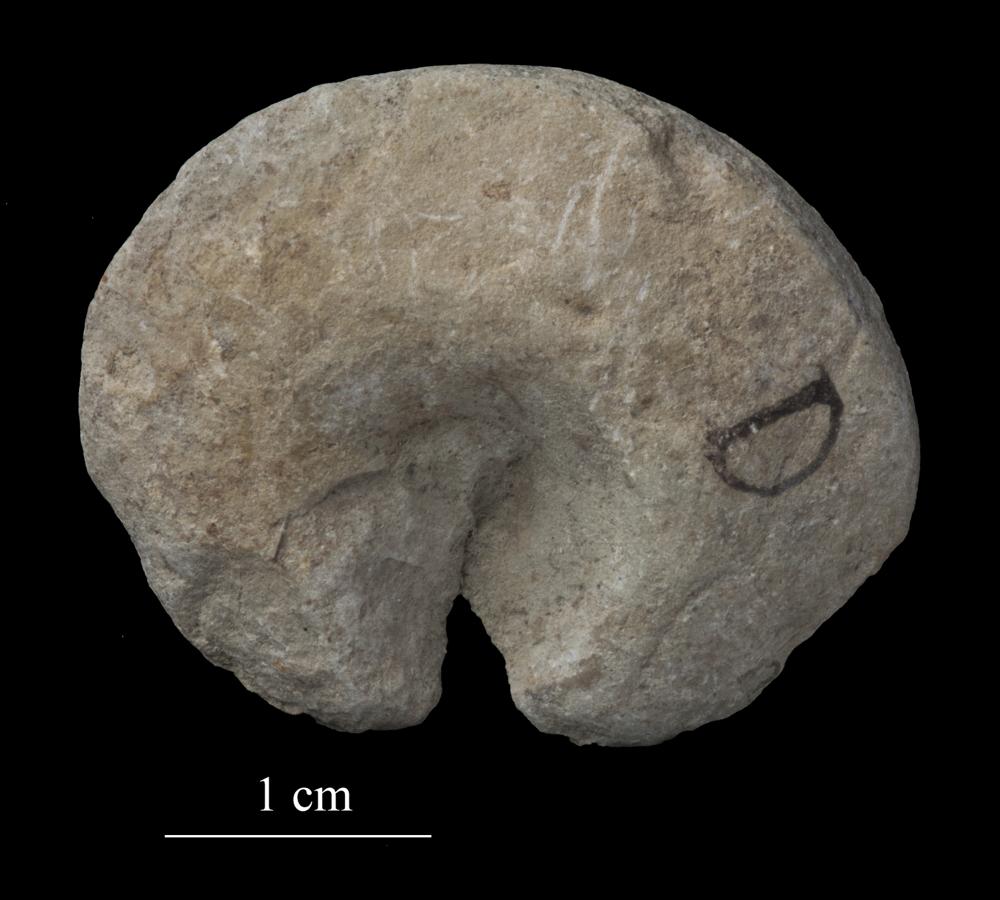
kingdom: Animalia
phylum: Mollusca
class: Gastropoda
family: Lophospiridae
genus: Lophospira
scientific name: Lophospira
